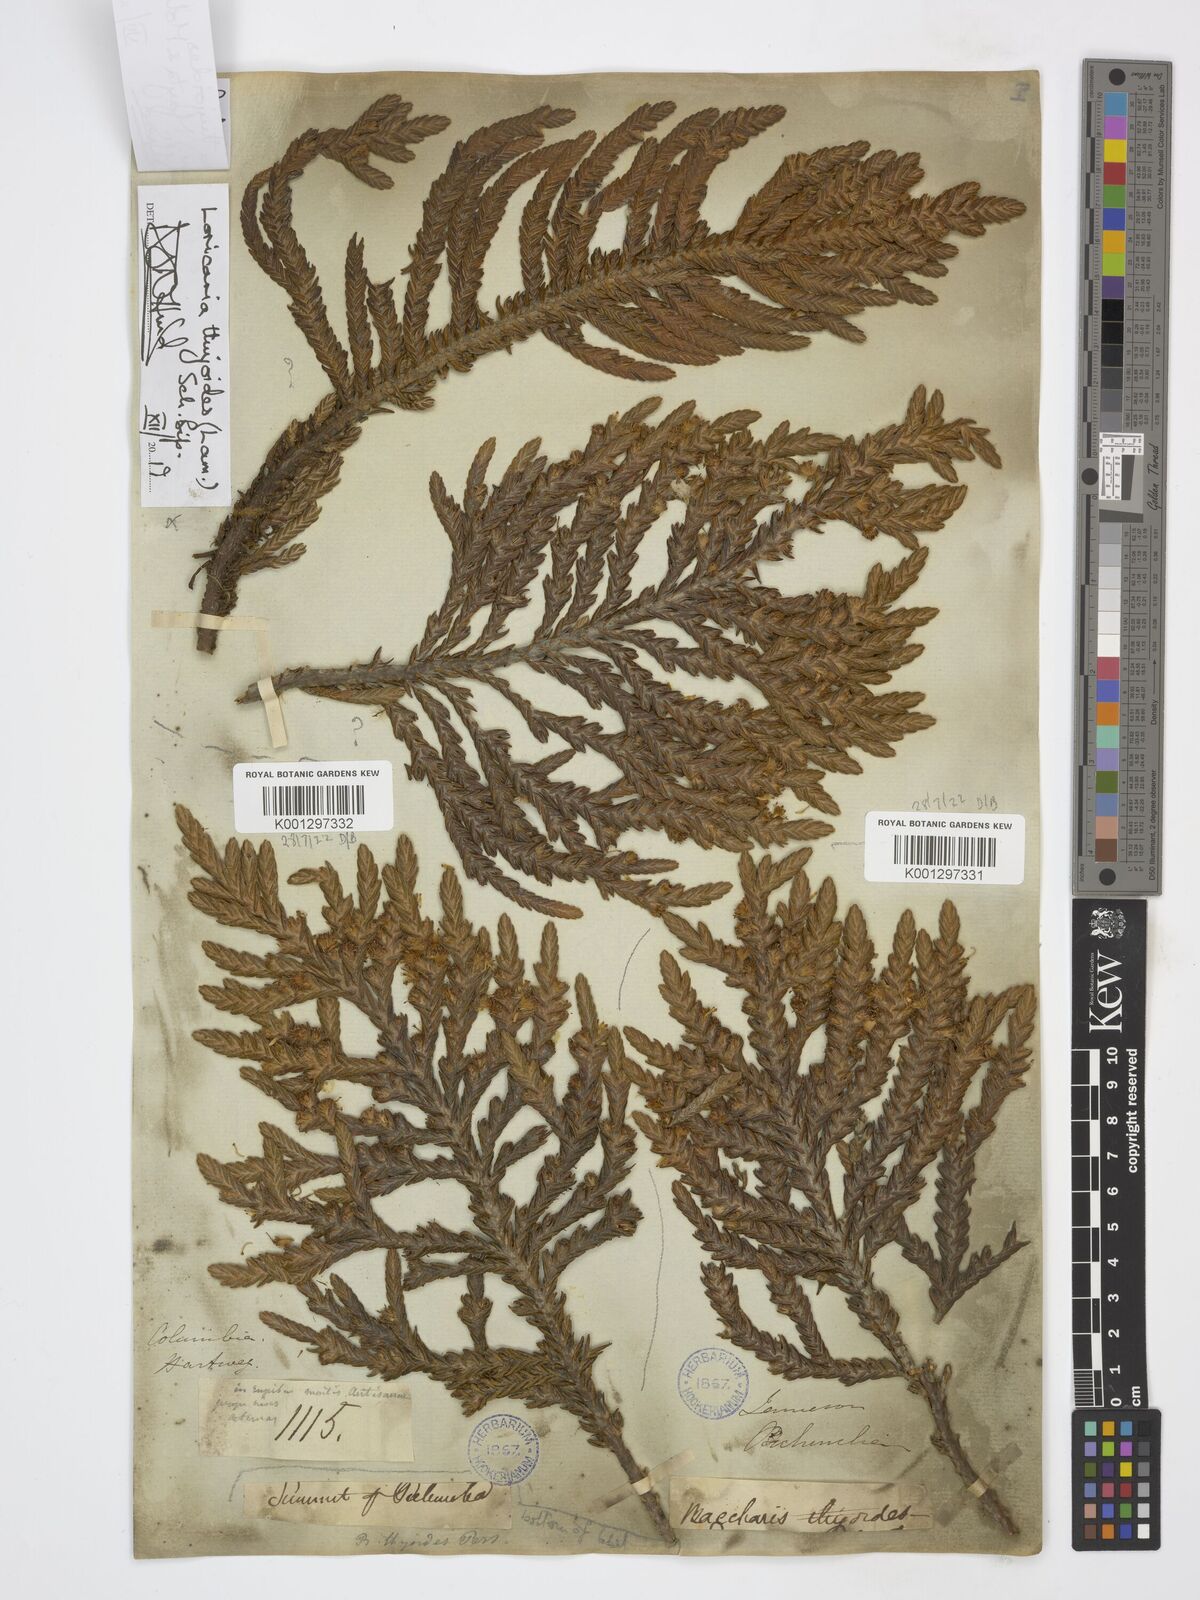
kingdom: Plantae
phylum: Tracheophyta
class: Magnoliopsida
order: Asterales
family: Asteraceae
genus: Andicolea
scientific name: Andicolea thuyoides
